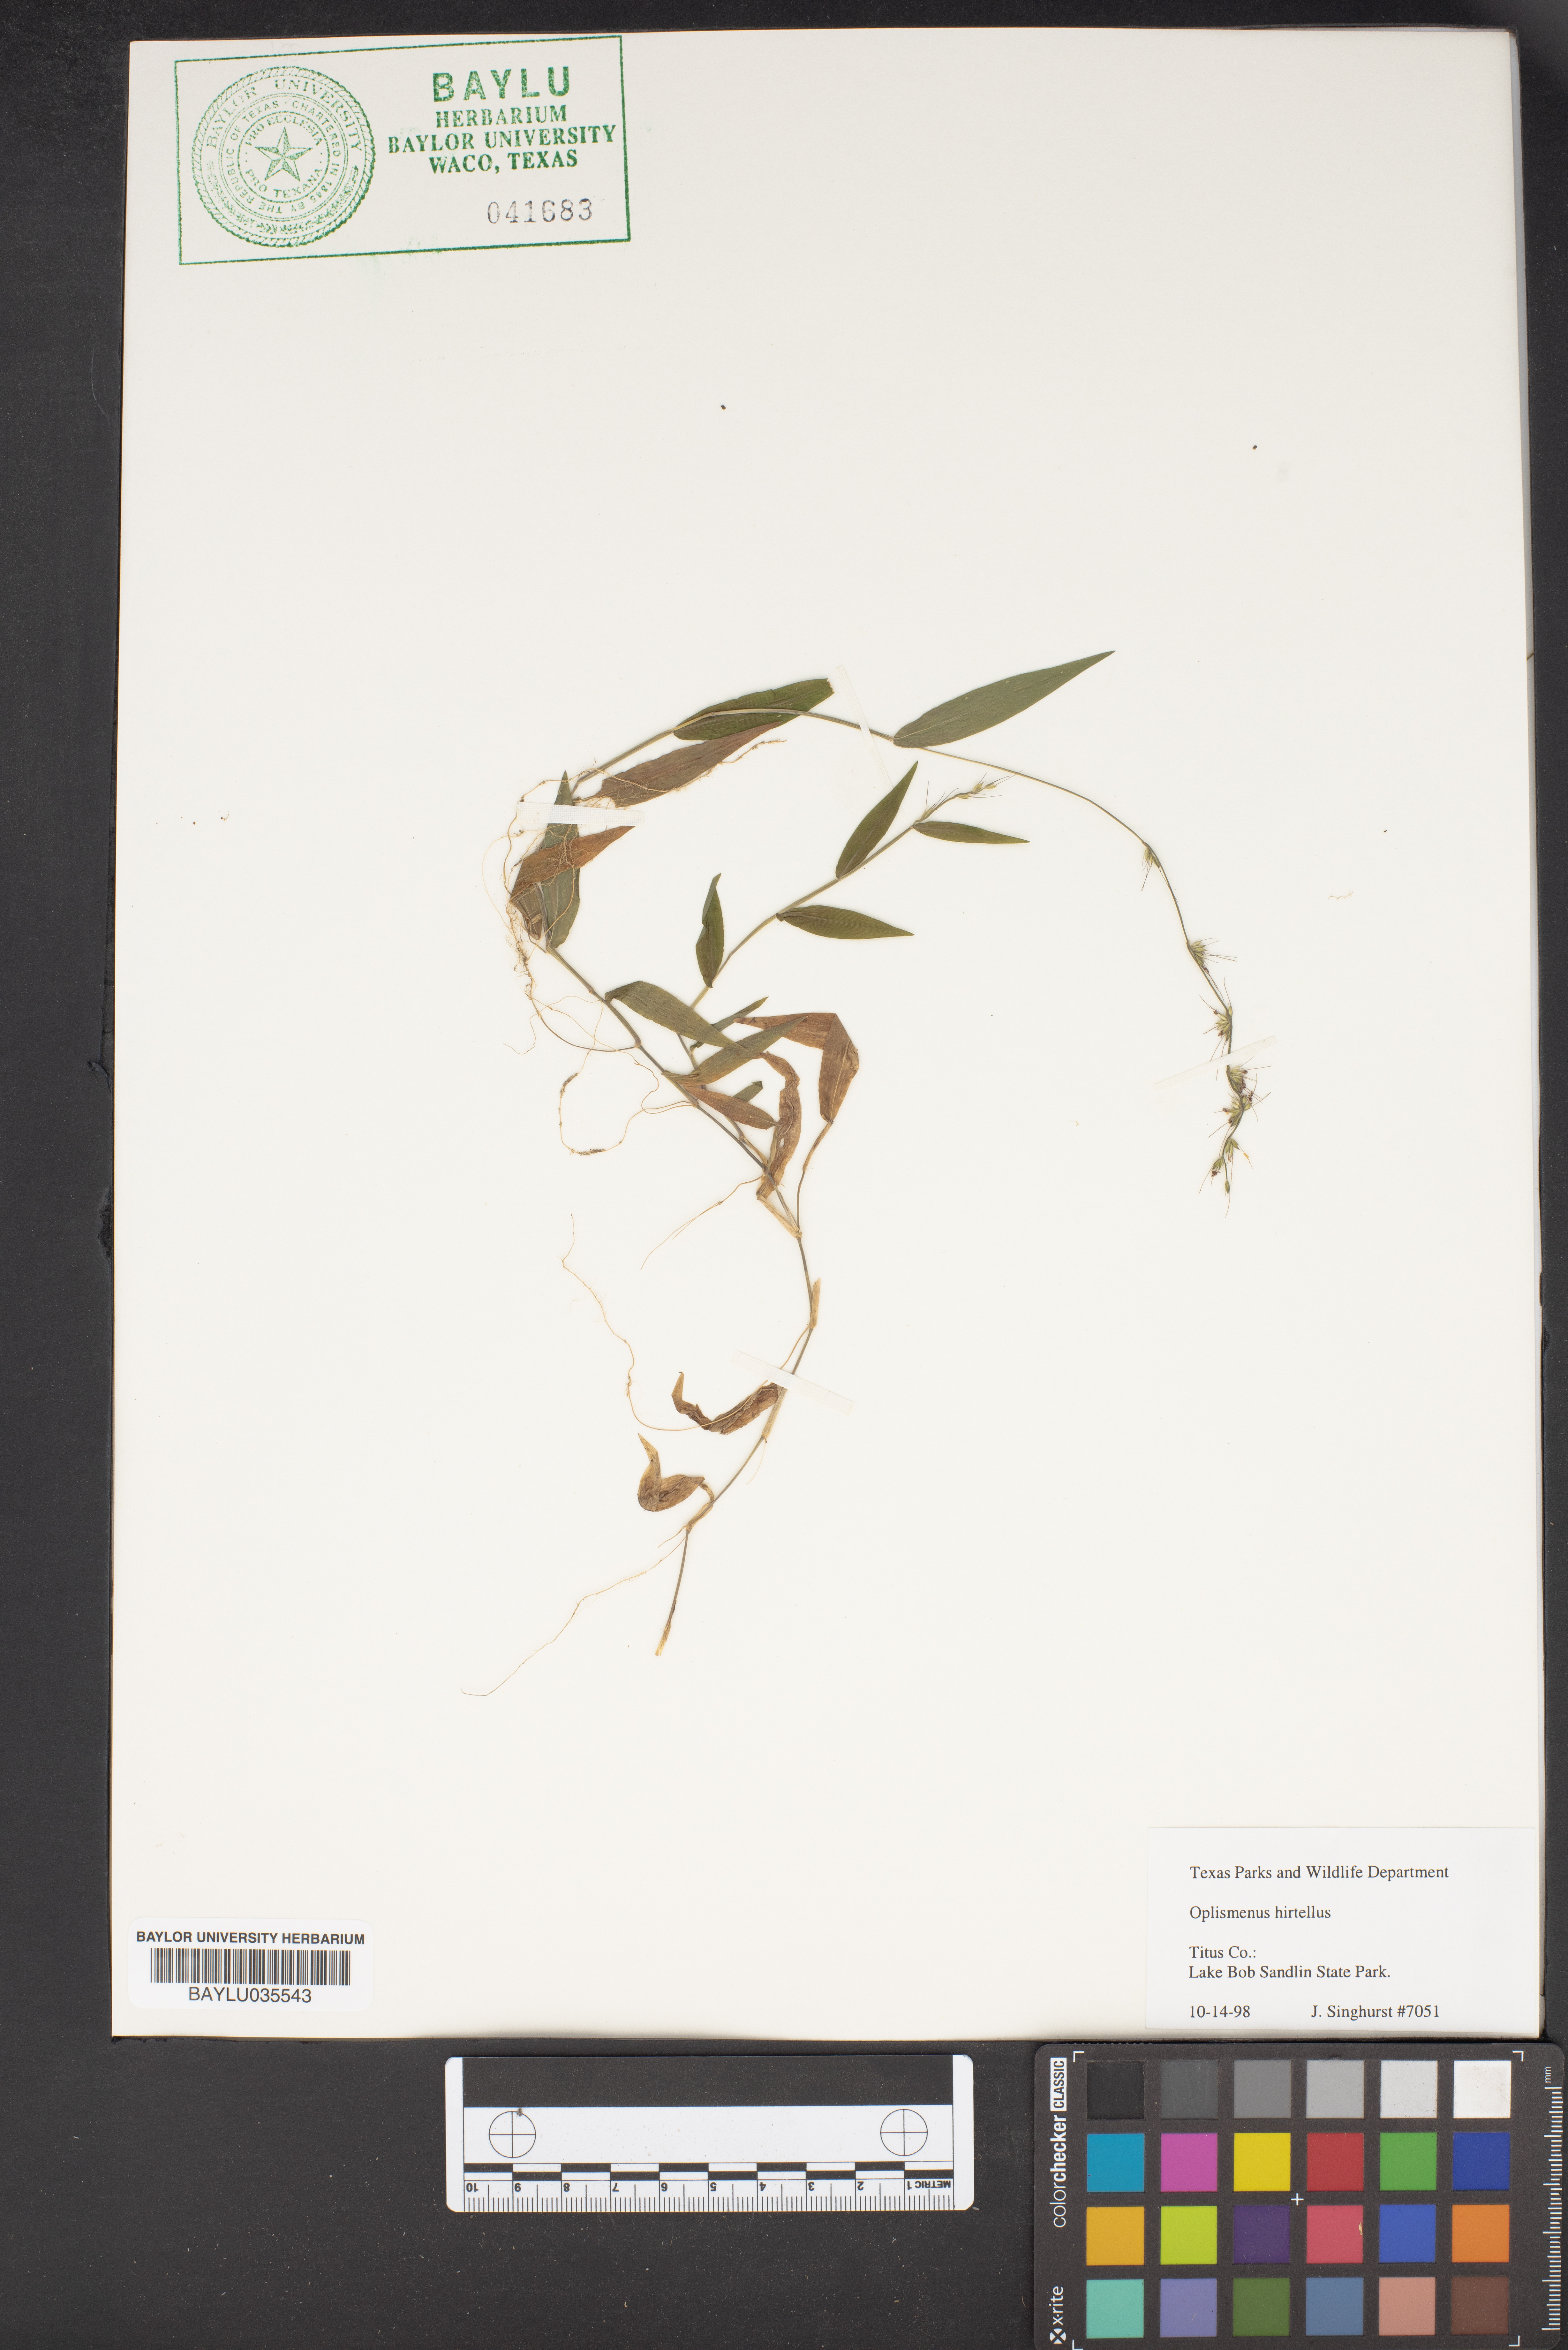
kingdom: Plantae
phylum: Tracheophyta
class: Liliopsida
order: Poales
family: Poaceae
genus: Oplismenus
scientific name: Oplismenus hirtellus
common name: Basketgrass
